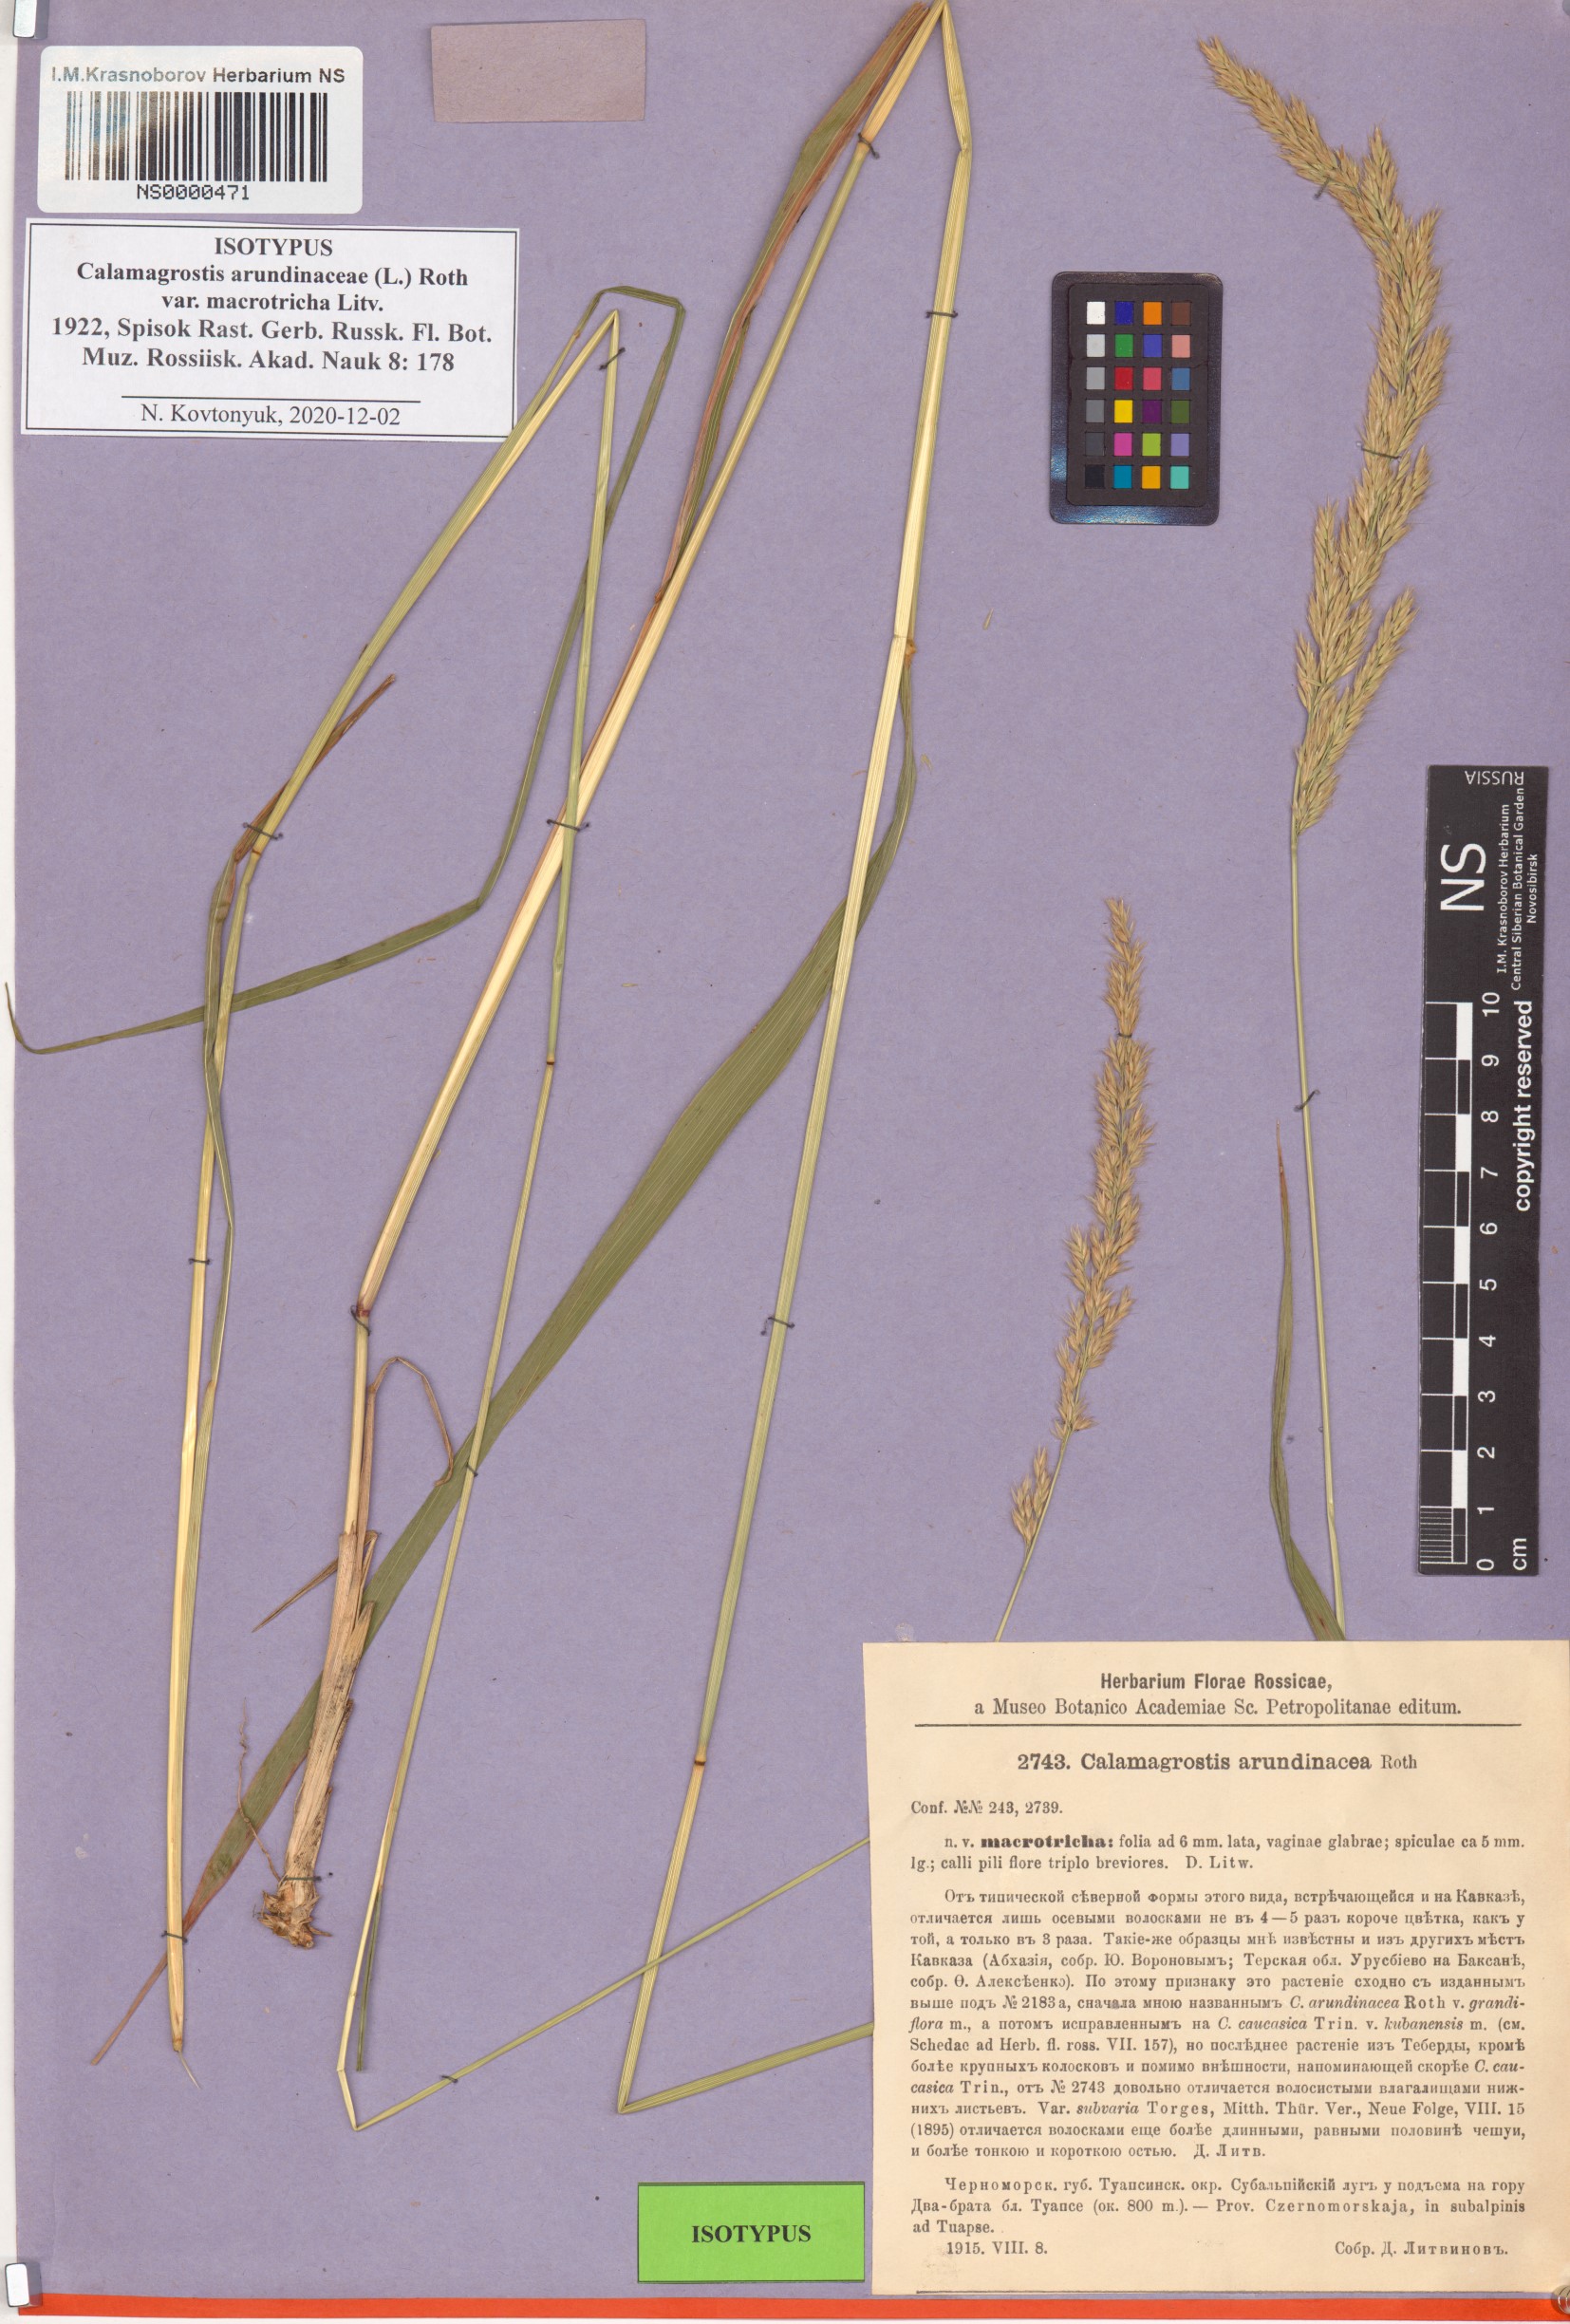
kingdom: Plantae
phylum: Tracheophyta
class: Liliopsida
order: Poales
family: Poaceae
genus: Calamagrostis
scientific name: Calamagrostis arundinacea
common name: Metskastik
